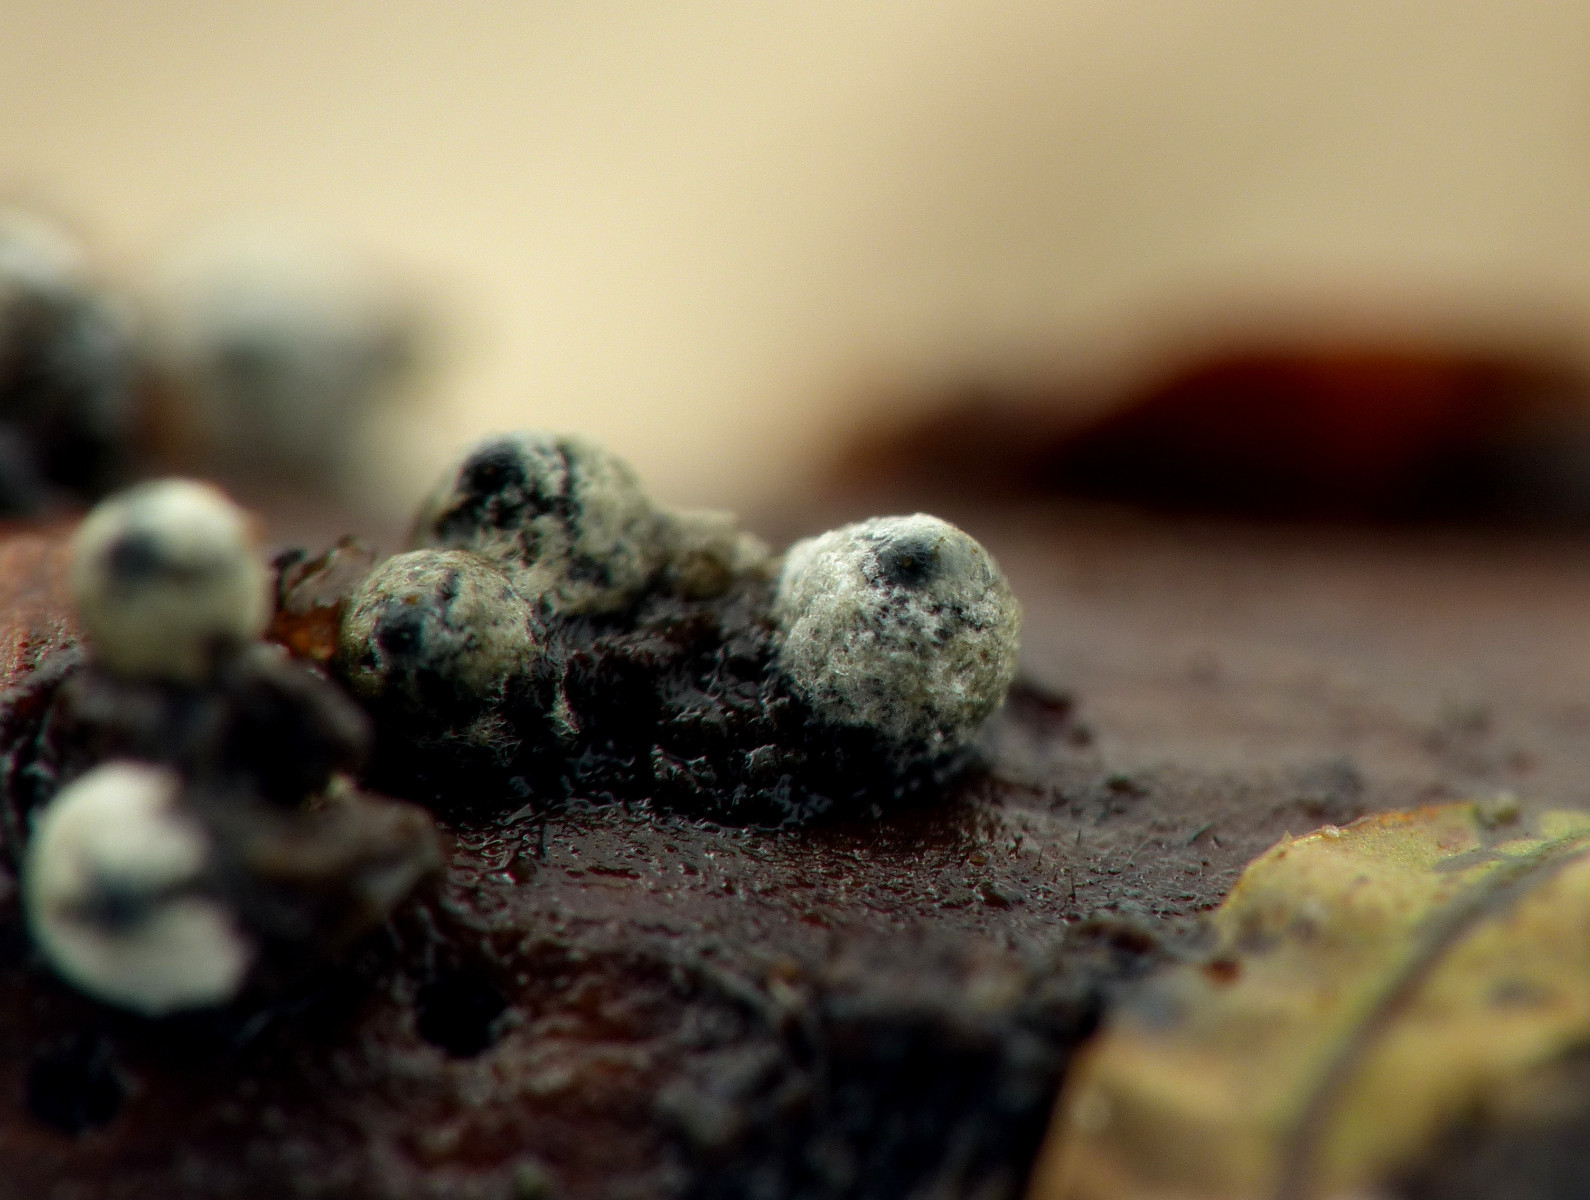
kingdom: Fungi
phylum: Ascomycota
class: Sordariomycetes
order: Sordariales
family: Lasiosphaeriaceae
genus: Lasiosphaeria
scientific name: Lasiosphaeria ovina
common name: fåre-kernesvamp
